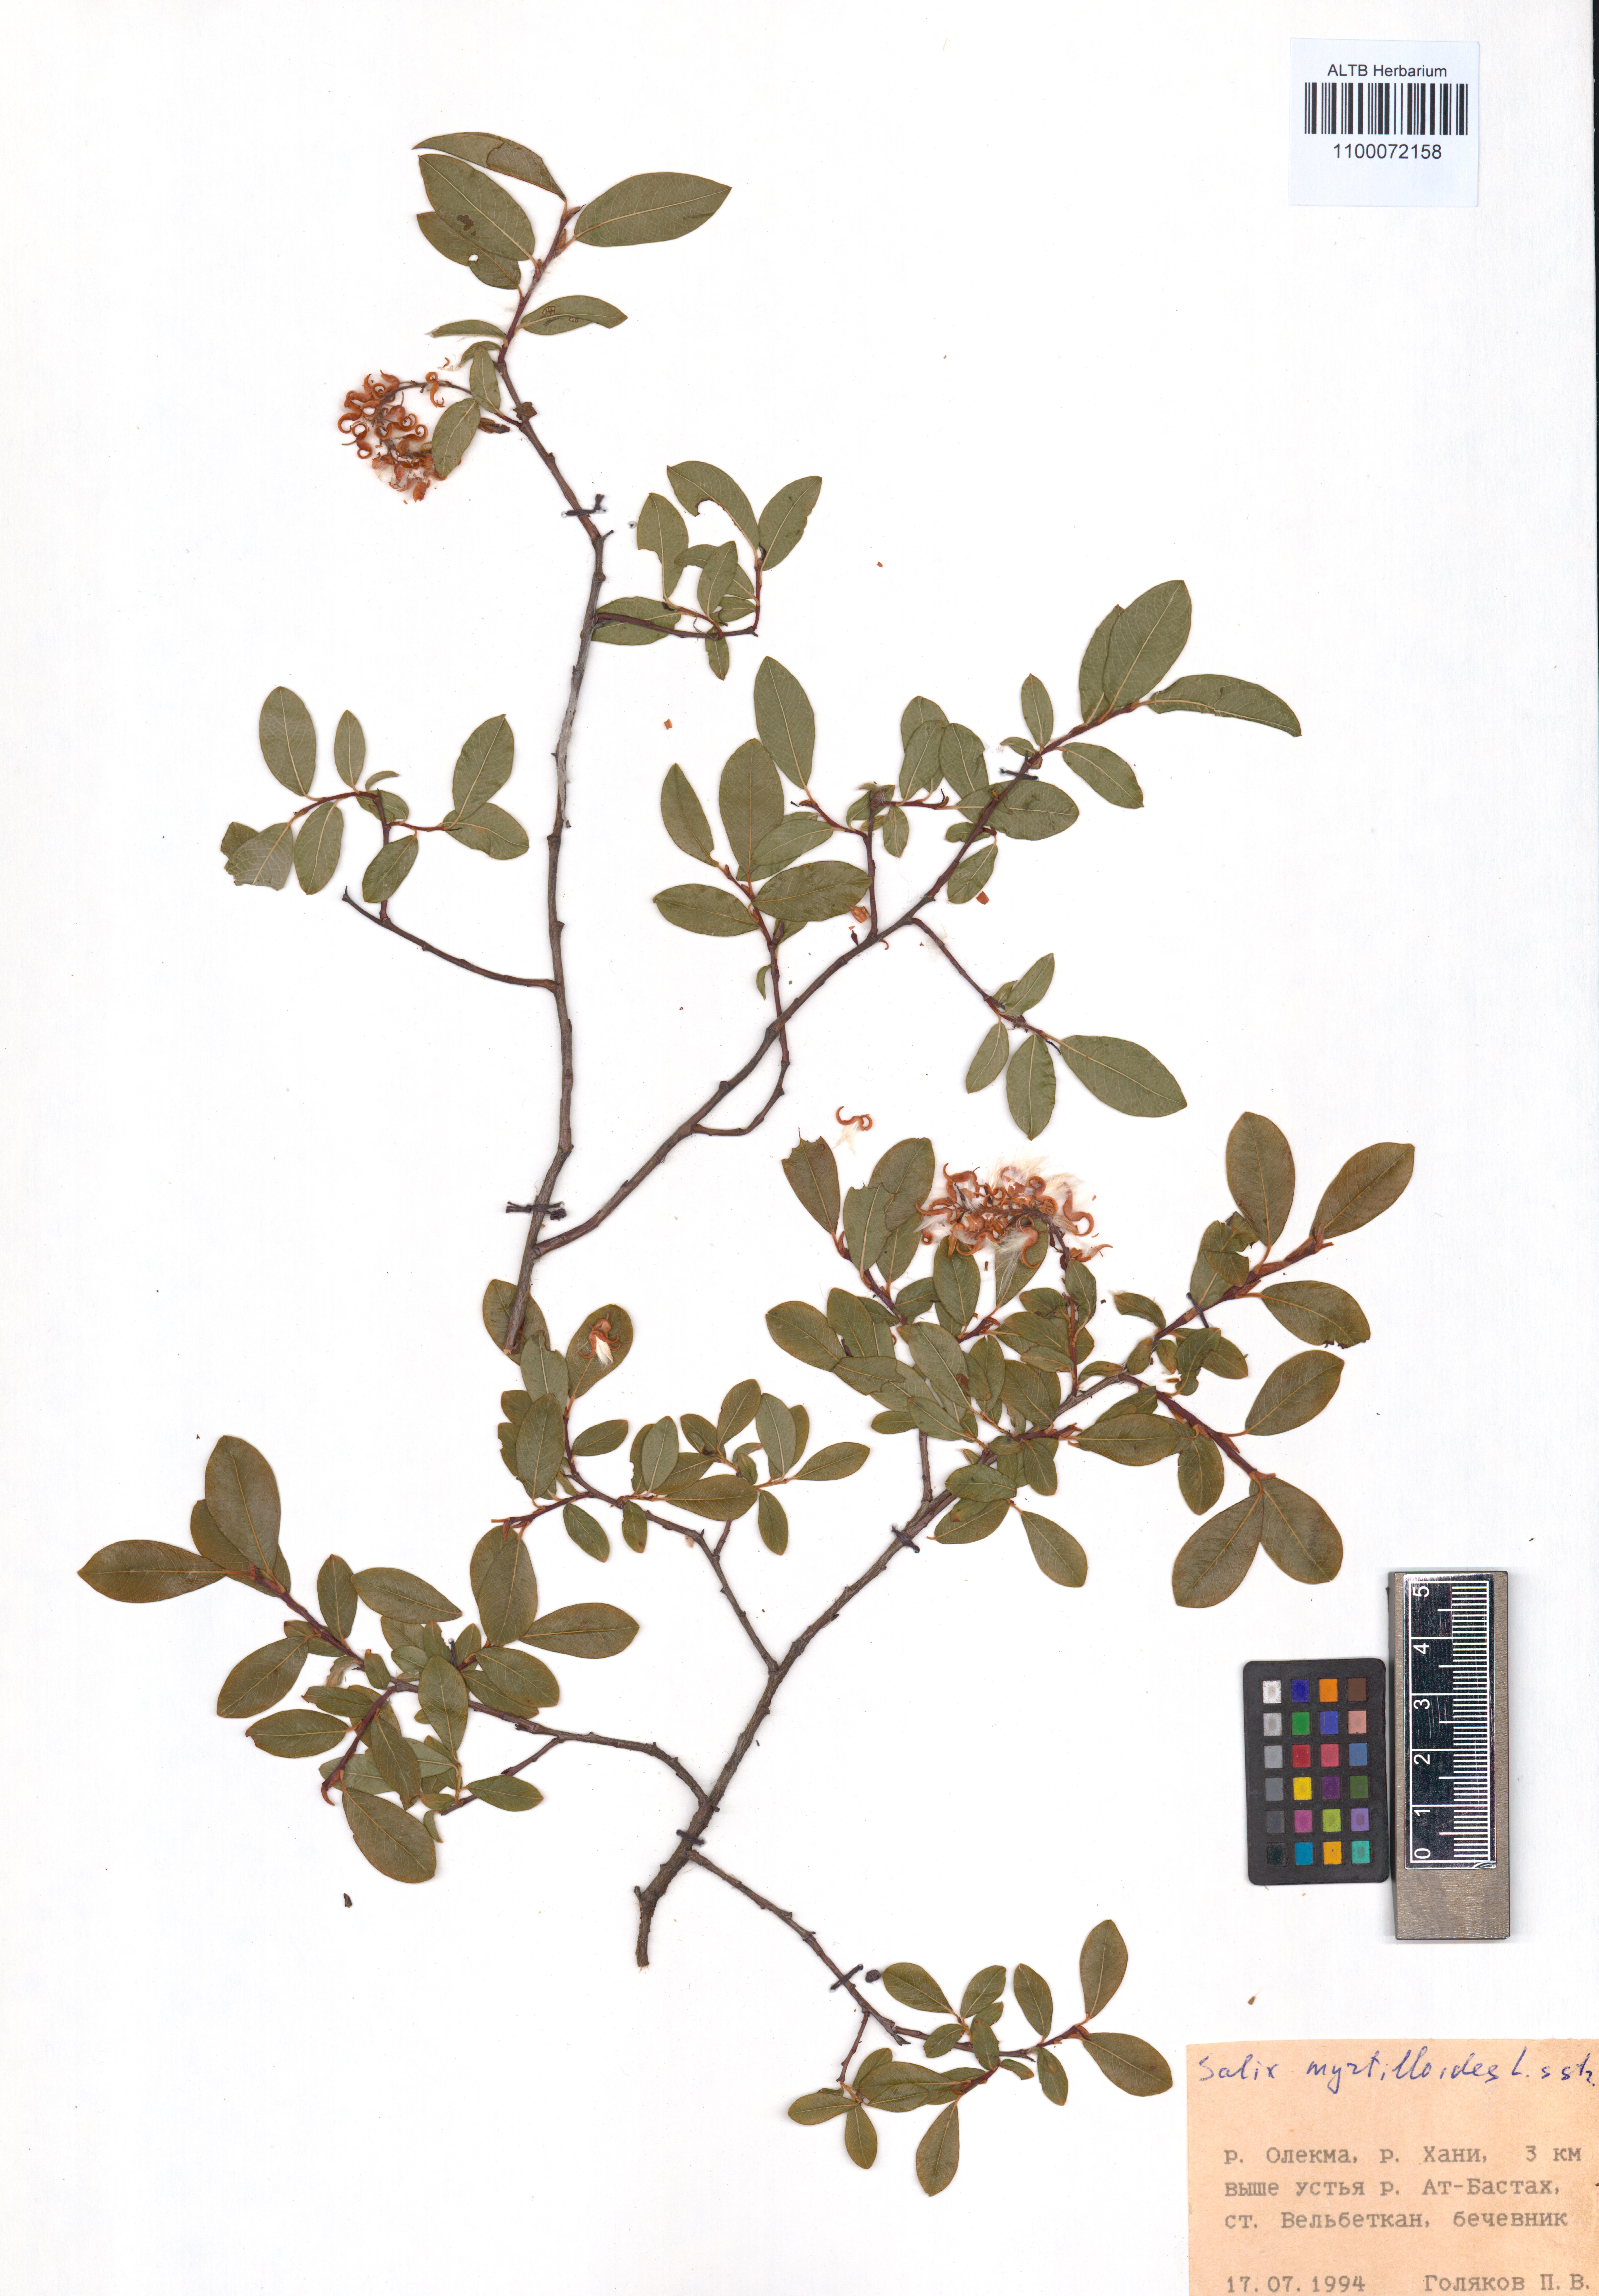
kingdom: Plantae
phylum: Tracheophyta
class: Magnoliopsida
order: Malpighiales
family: Salicaceae
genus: Salix
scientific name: Salix myrtilloides
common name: Myrtle-leaved willow
